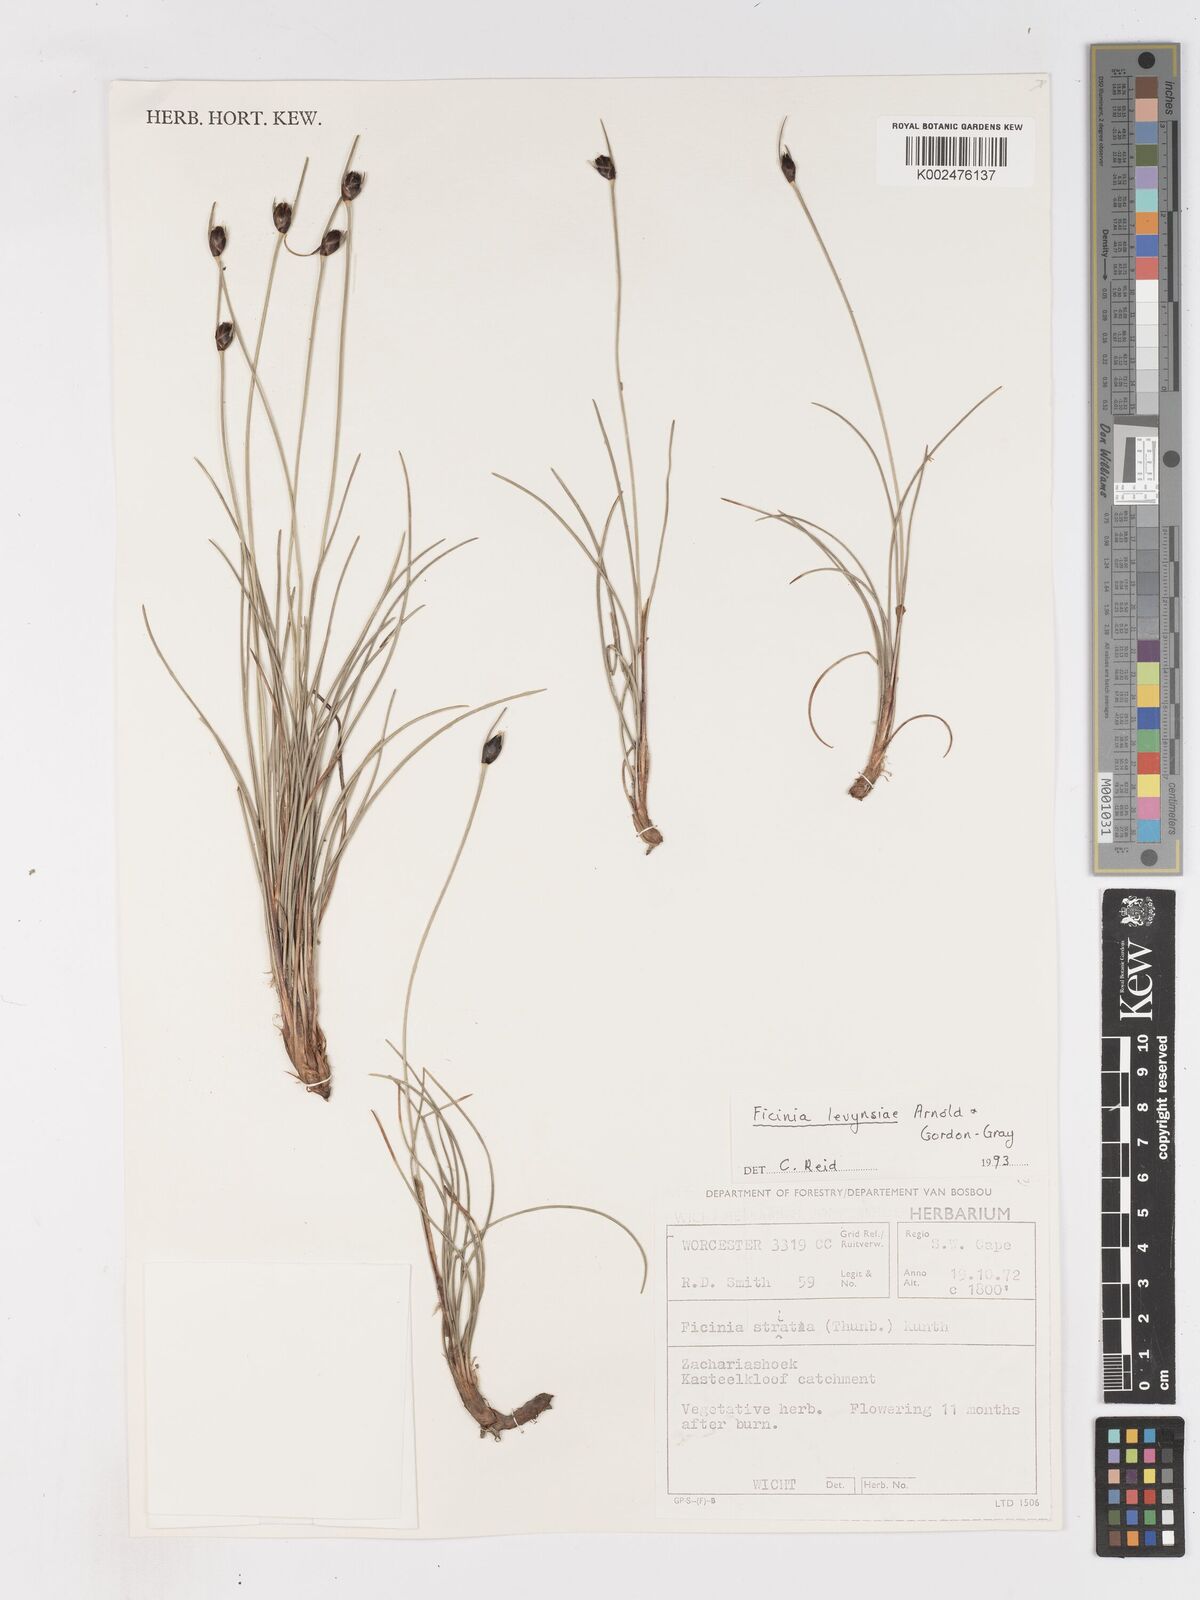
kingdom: Plantae
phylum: Tracheophyta
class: Liliopsida
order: Poales
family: Cyperaceae
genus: Ficinia
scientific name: Ficinia levynsiae
